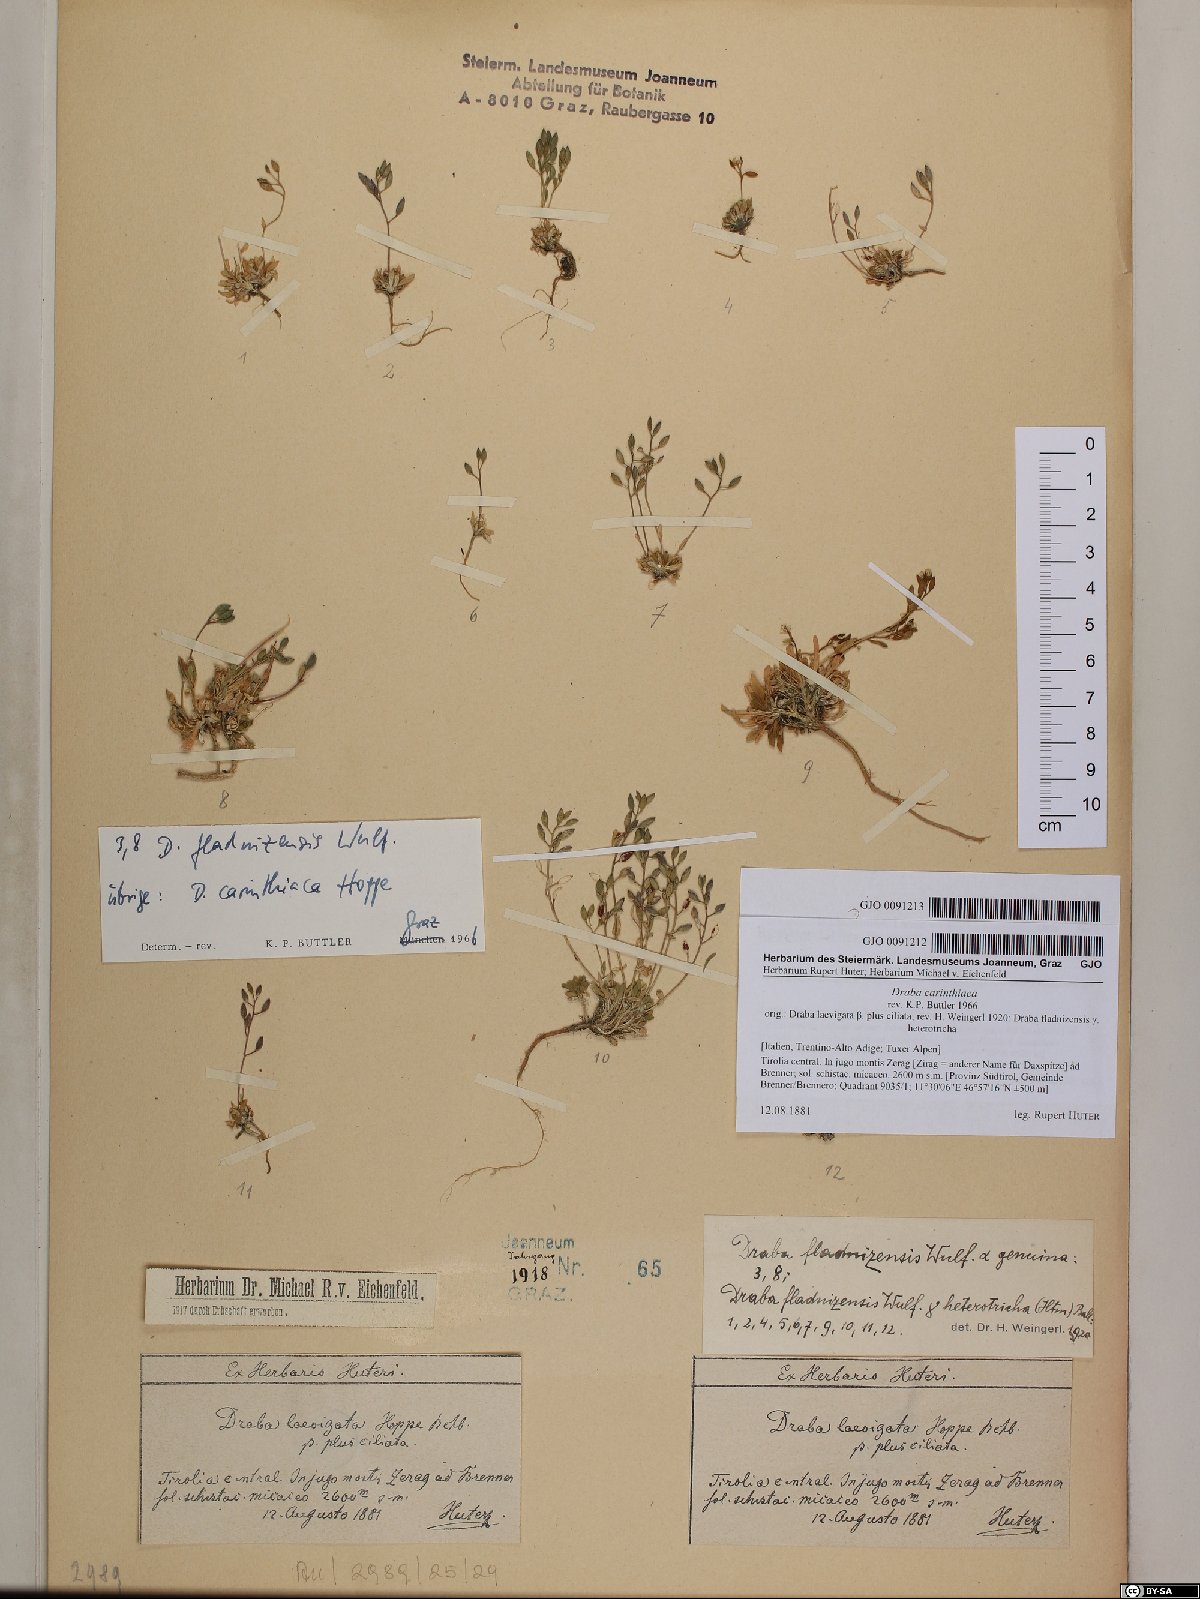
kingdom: Plantae
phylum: Tracheophyta
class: Magnoliopsida
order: Brassicales
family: Brassicaceae
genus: Draba
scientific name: Draba siliquosa
